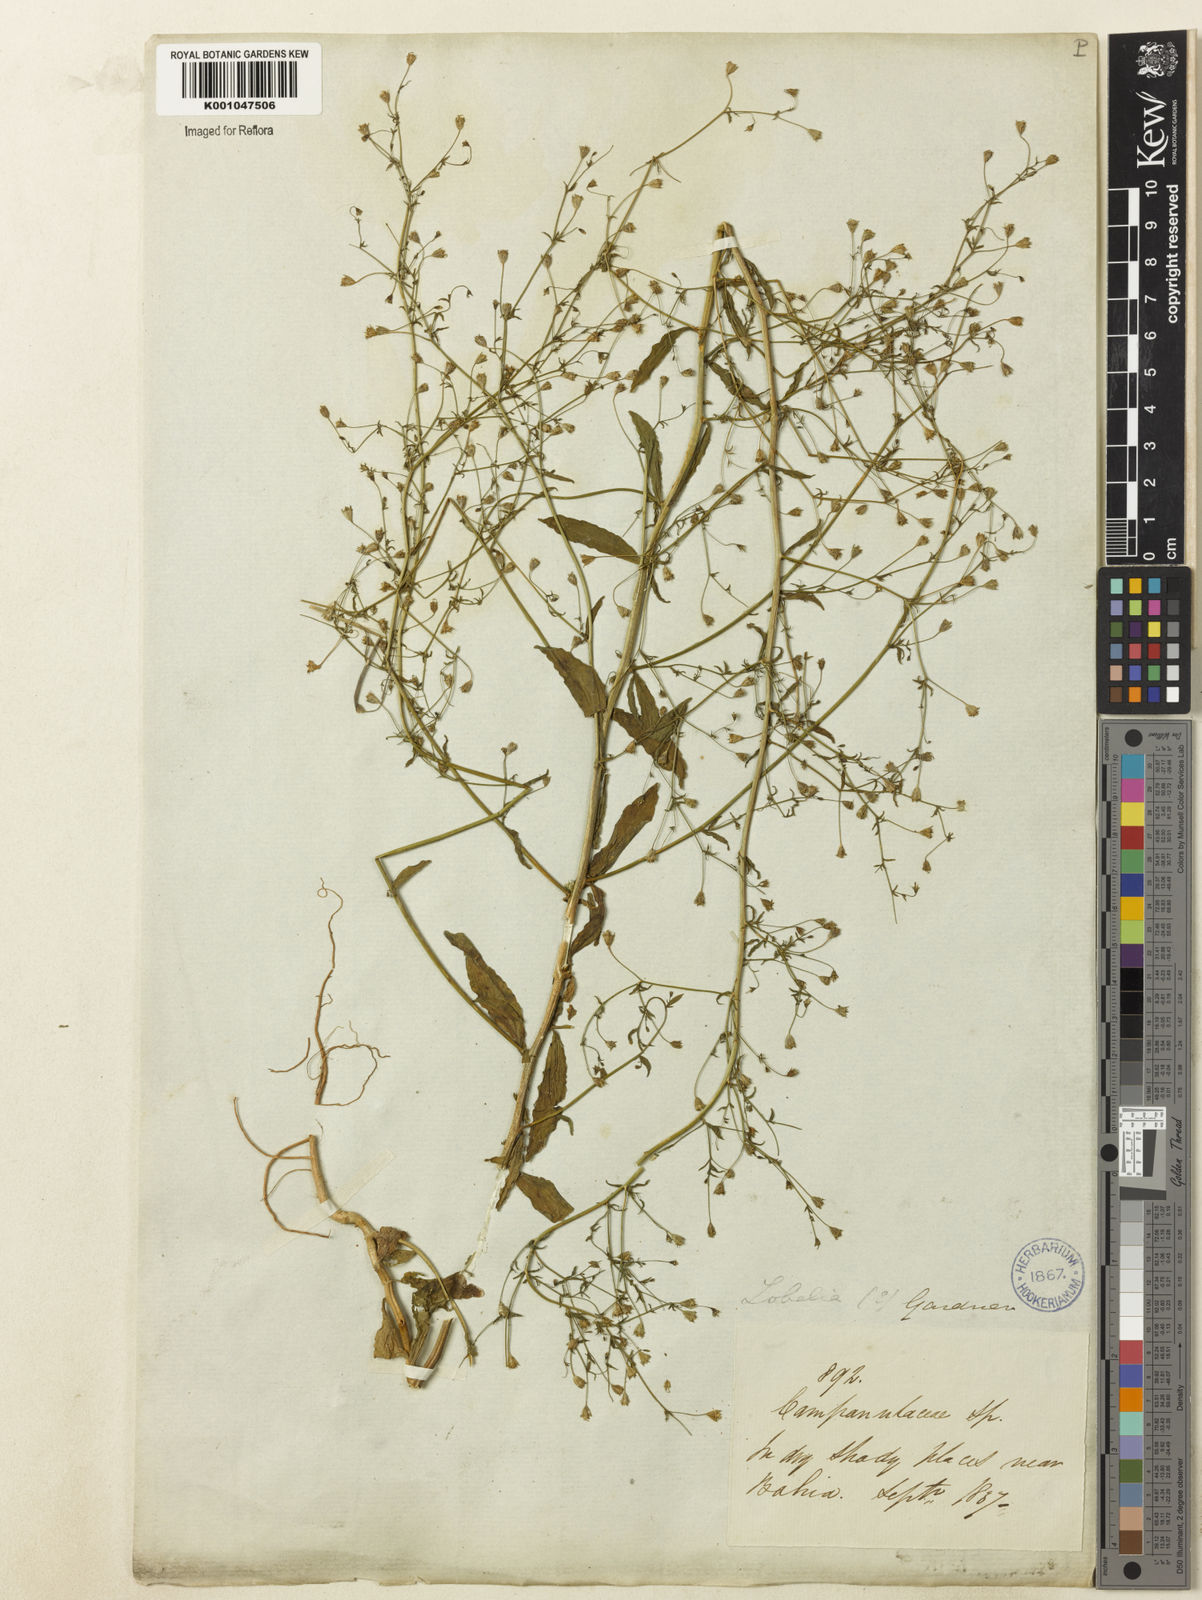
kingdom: Plantae
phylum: Tracheophyta
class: Magnoliopsida
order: Asterales
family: Campanulaceae
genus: Wahlenbergia
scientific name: Wahlenbergia perrottetii
